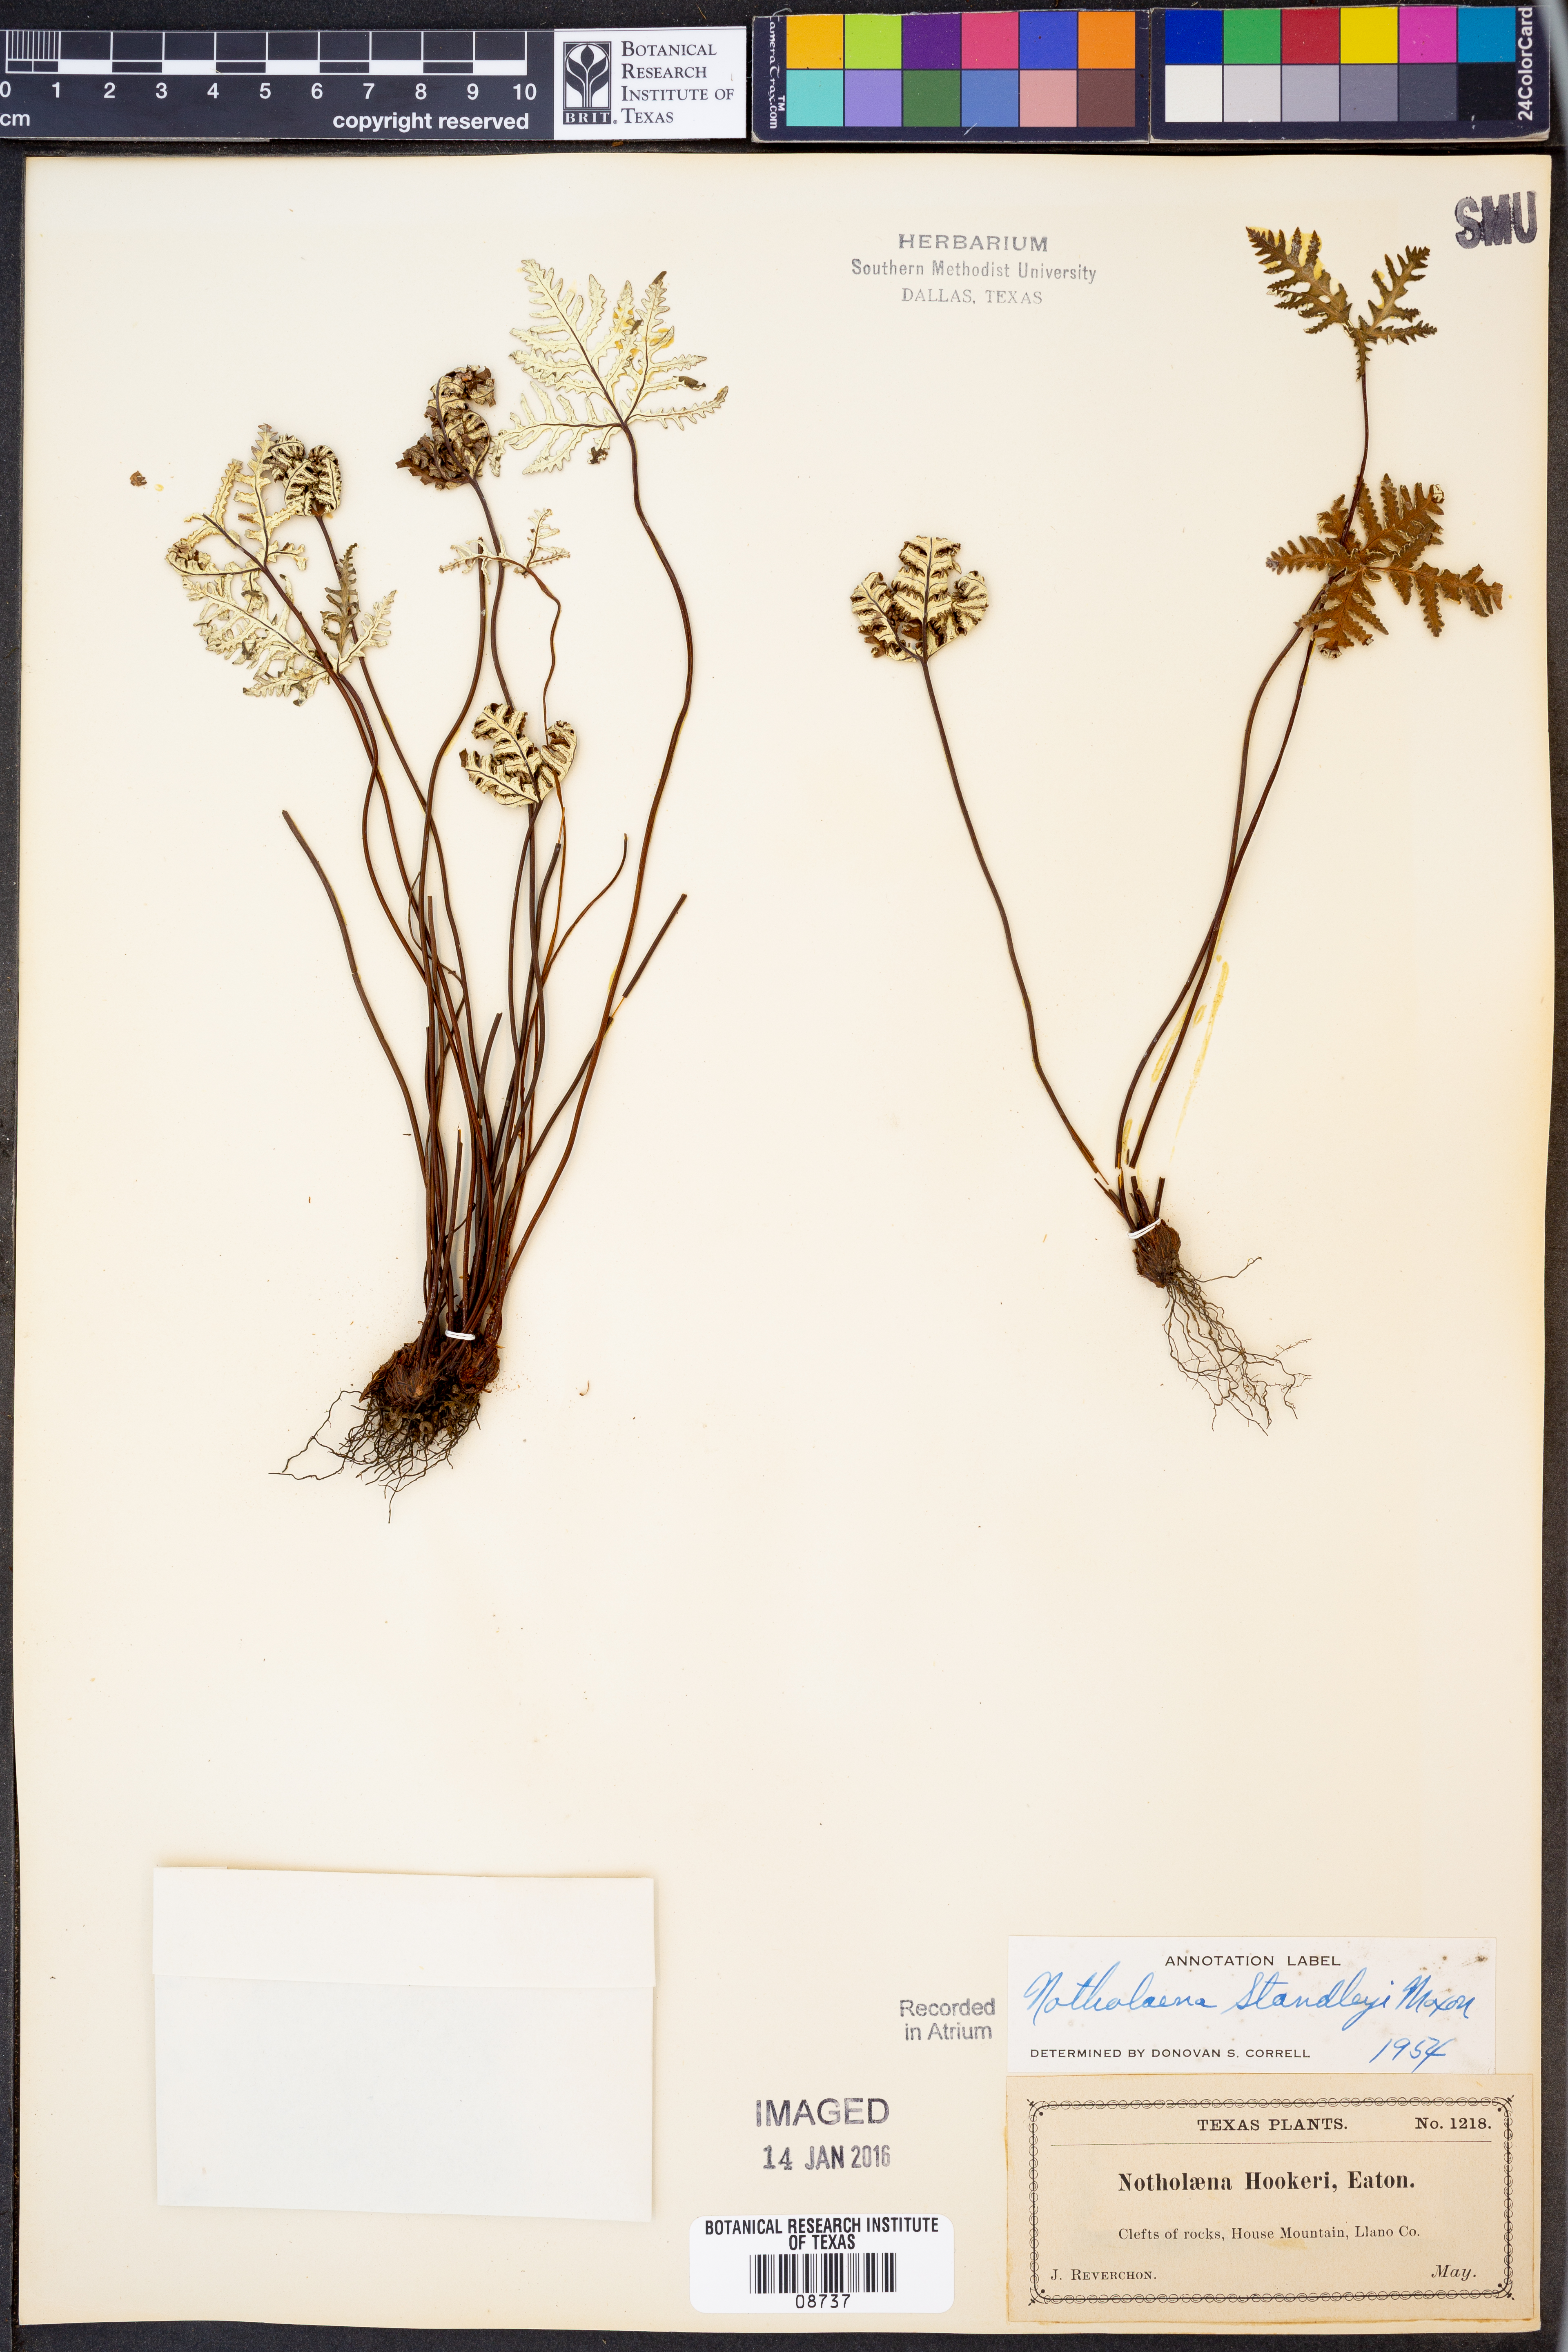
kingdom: Plantae
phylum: Tracheophyta
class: Polypodiopsida
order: Polypodiales
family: Pteridaceae
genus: Notholaena
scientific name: Notholaena standleyi
